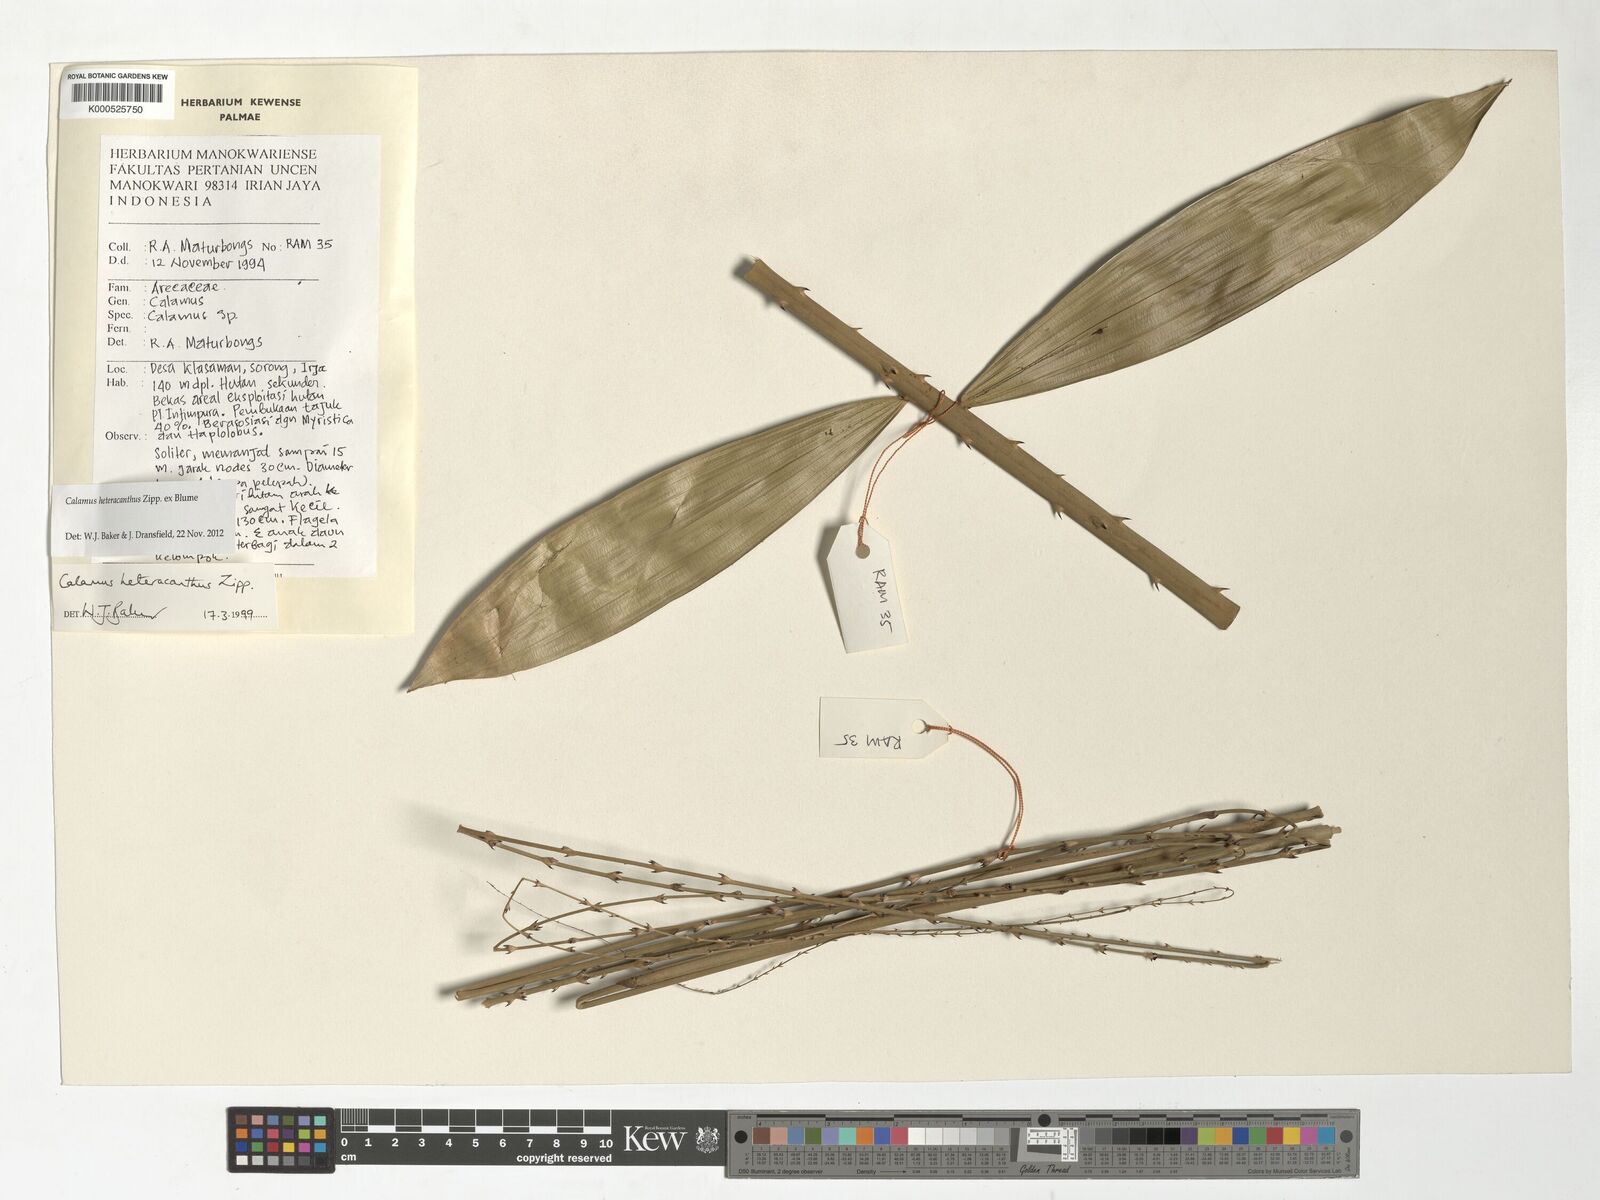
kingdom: Plantae
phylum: Tracheophyta
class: Liliopsida
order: Arecales
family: Arecaceae
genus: Calamus
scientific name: Calamus heteracanthus
